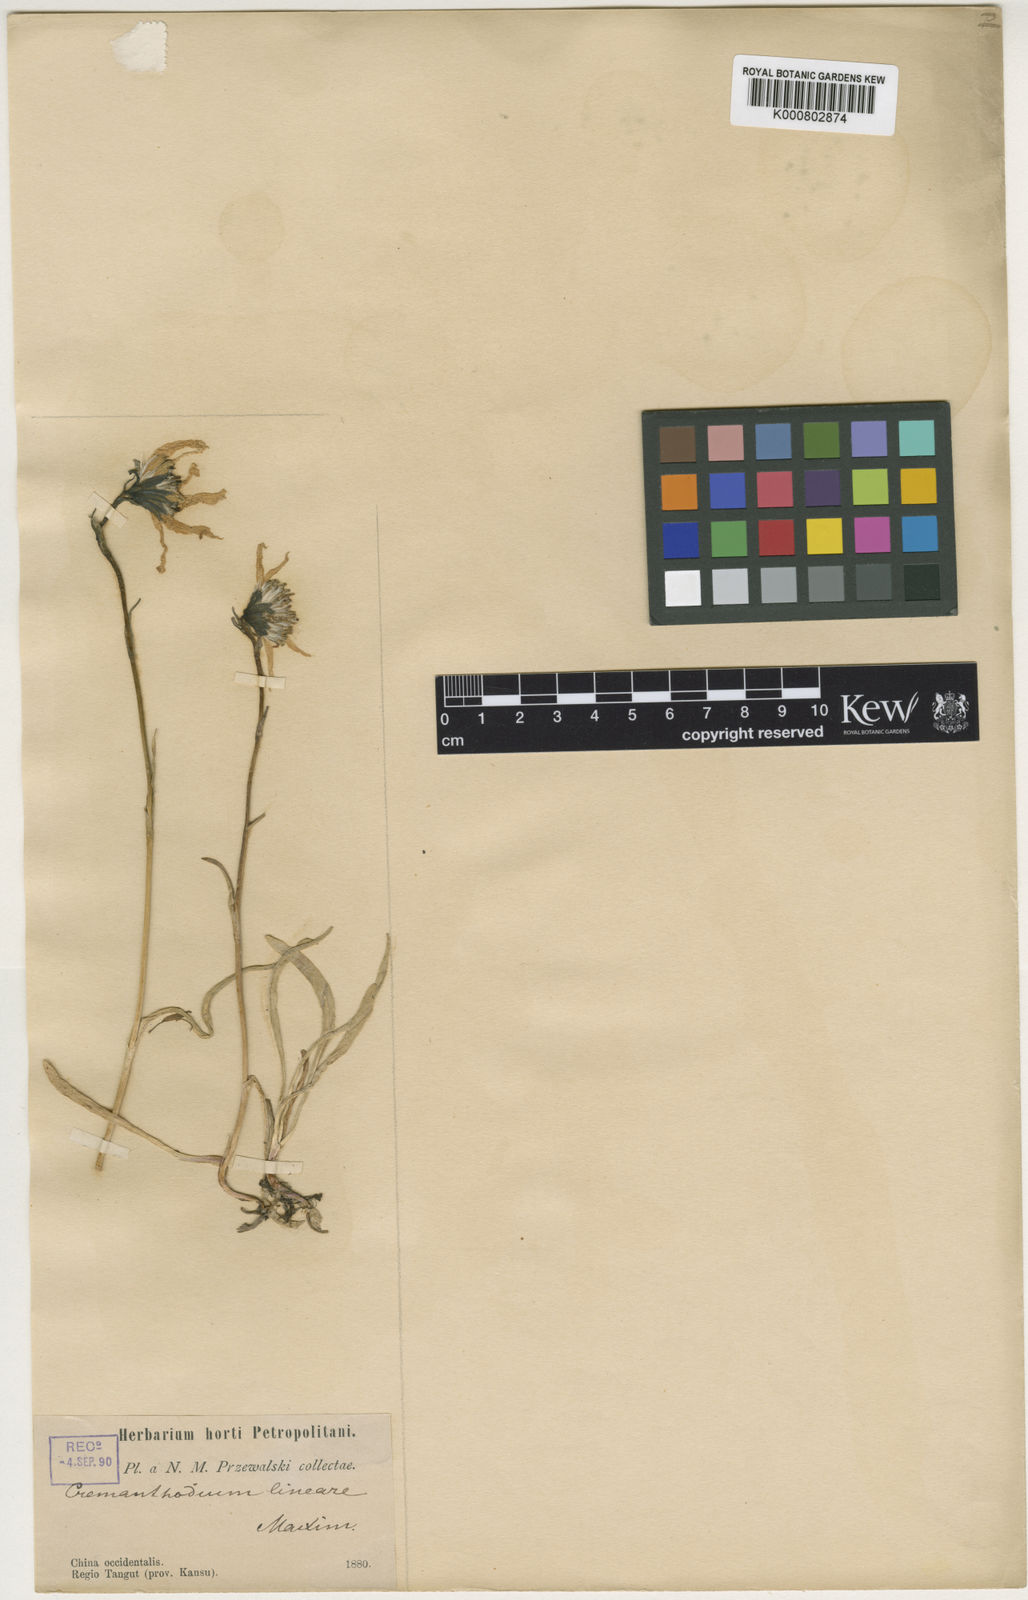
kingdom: Plantae
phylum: Tracheophyta
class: Magnoliopsida
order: Asterales
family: Asteraceae
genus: Cremanthodium
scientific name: Cremanthodium lineare
